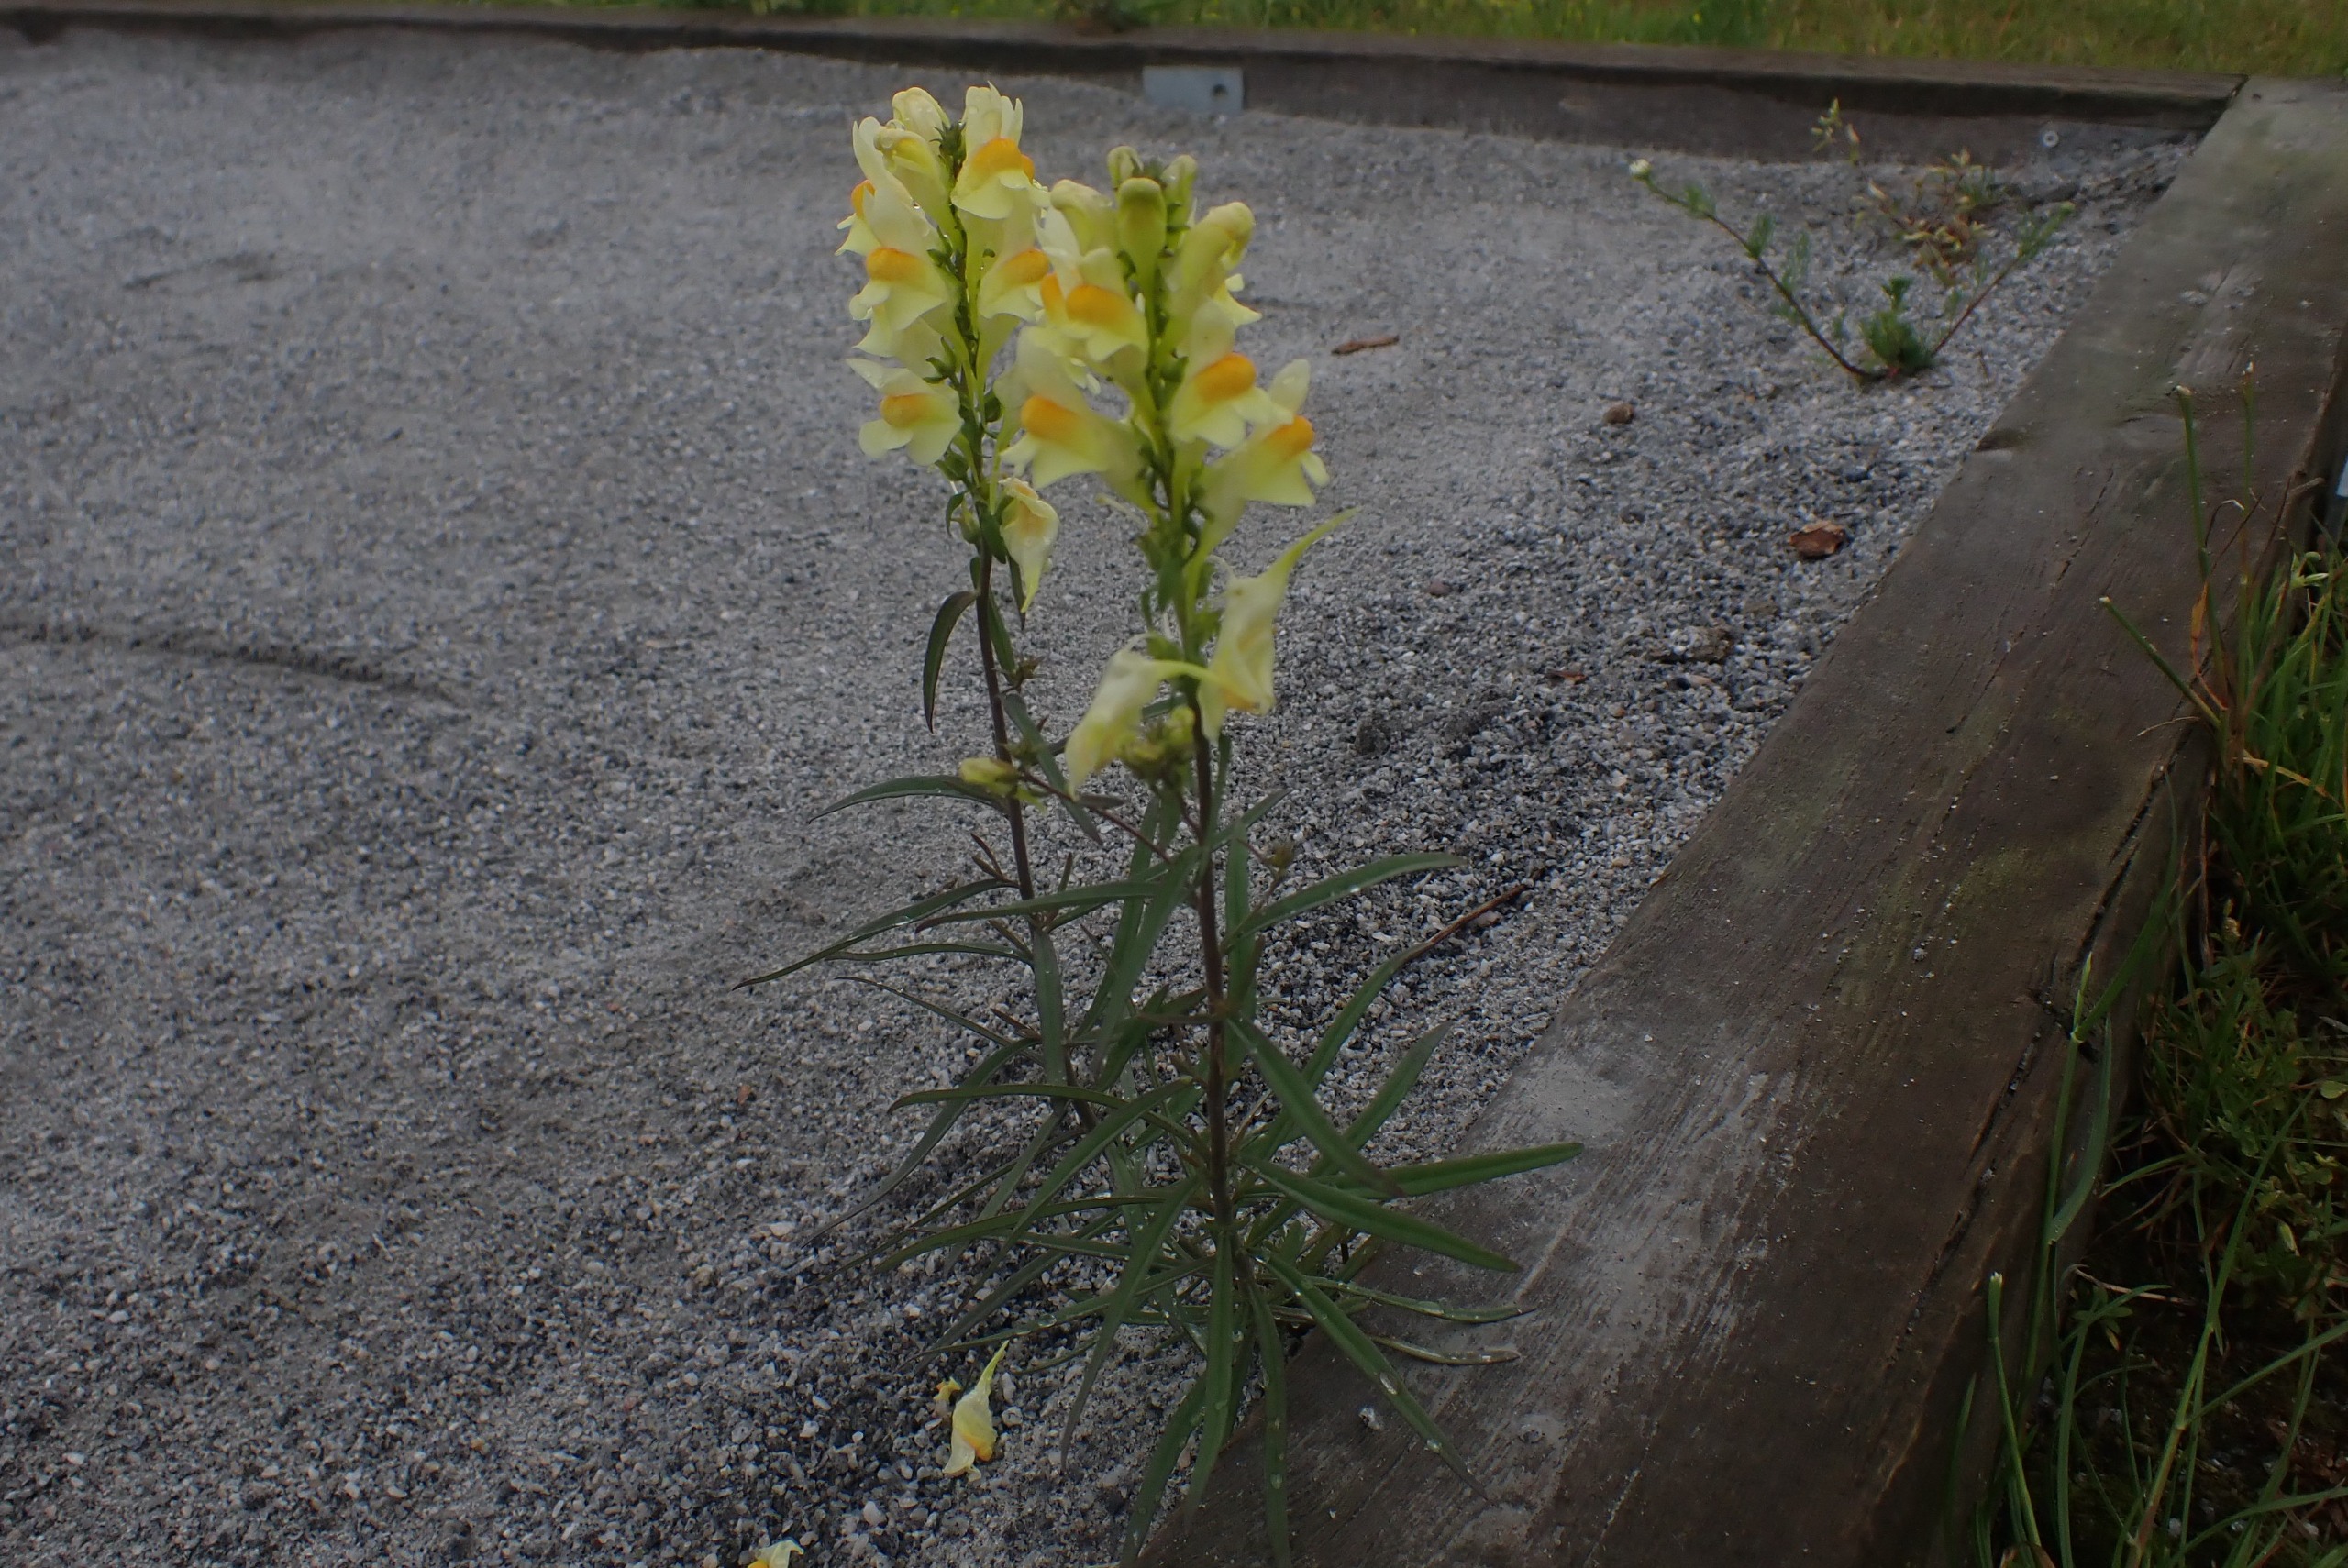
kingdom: Plantae
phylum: Tracheophyta
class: Magnoliopsida
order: Lamiales
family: Plantaginaceae
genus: Linaria
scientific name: Linaria vulgaris
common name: Almindelig torskemund
